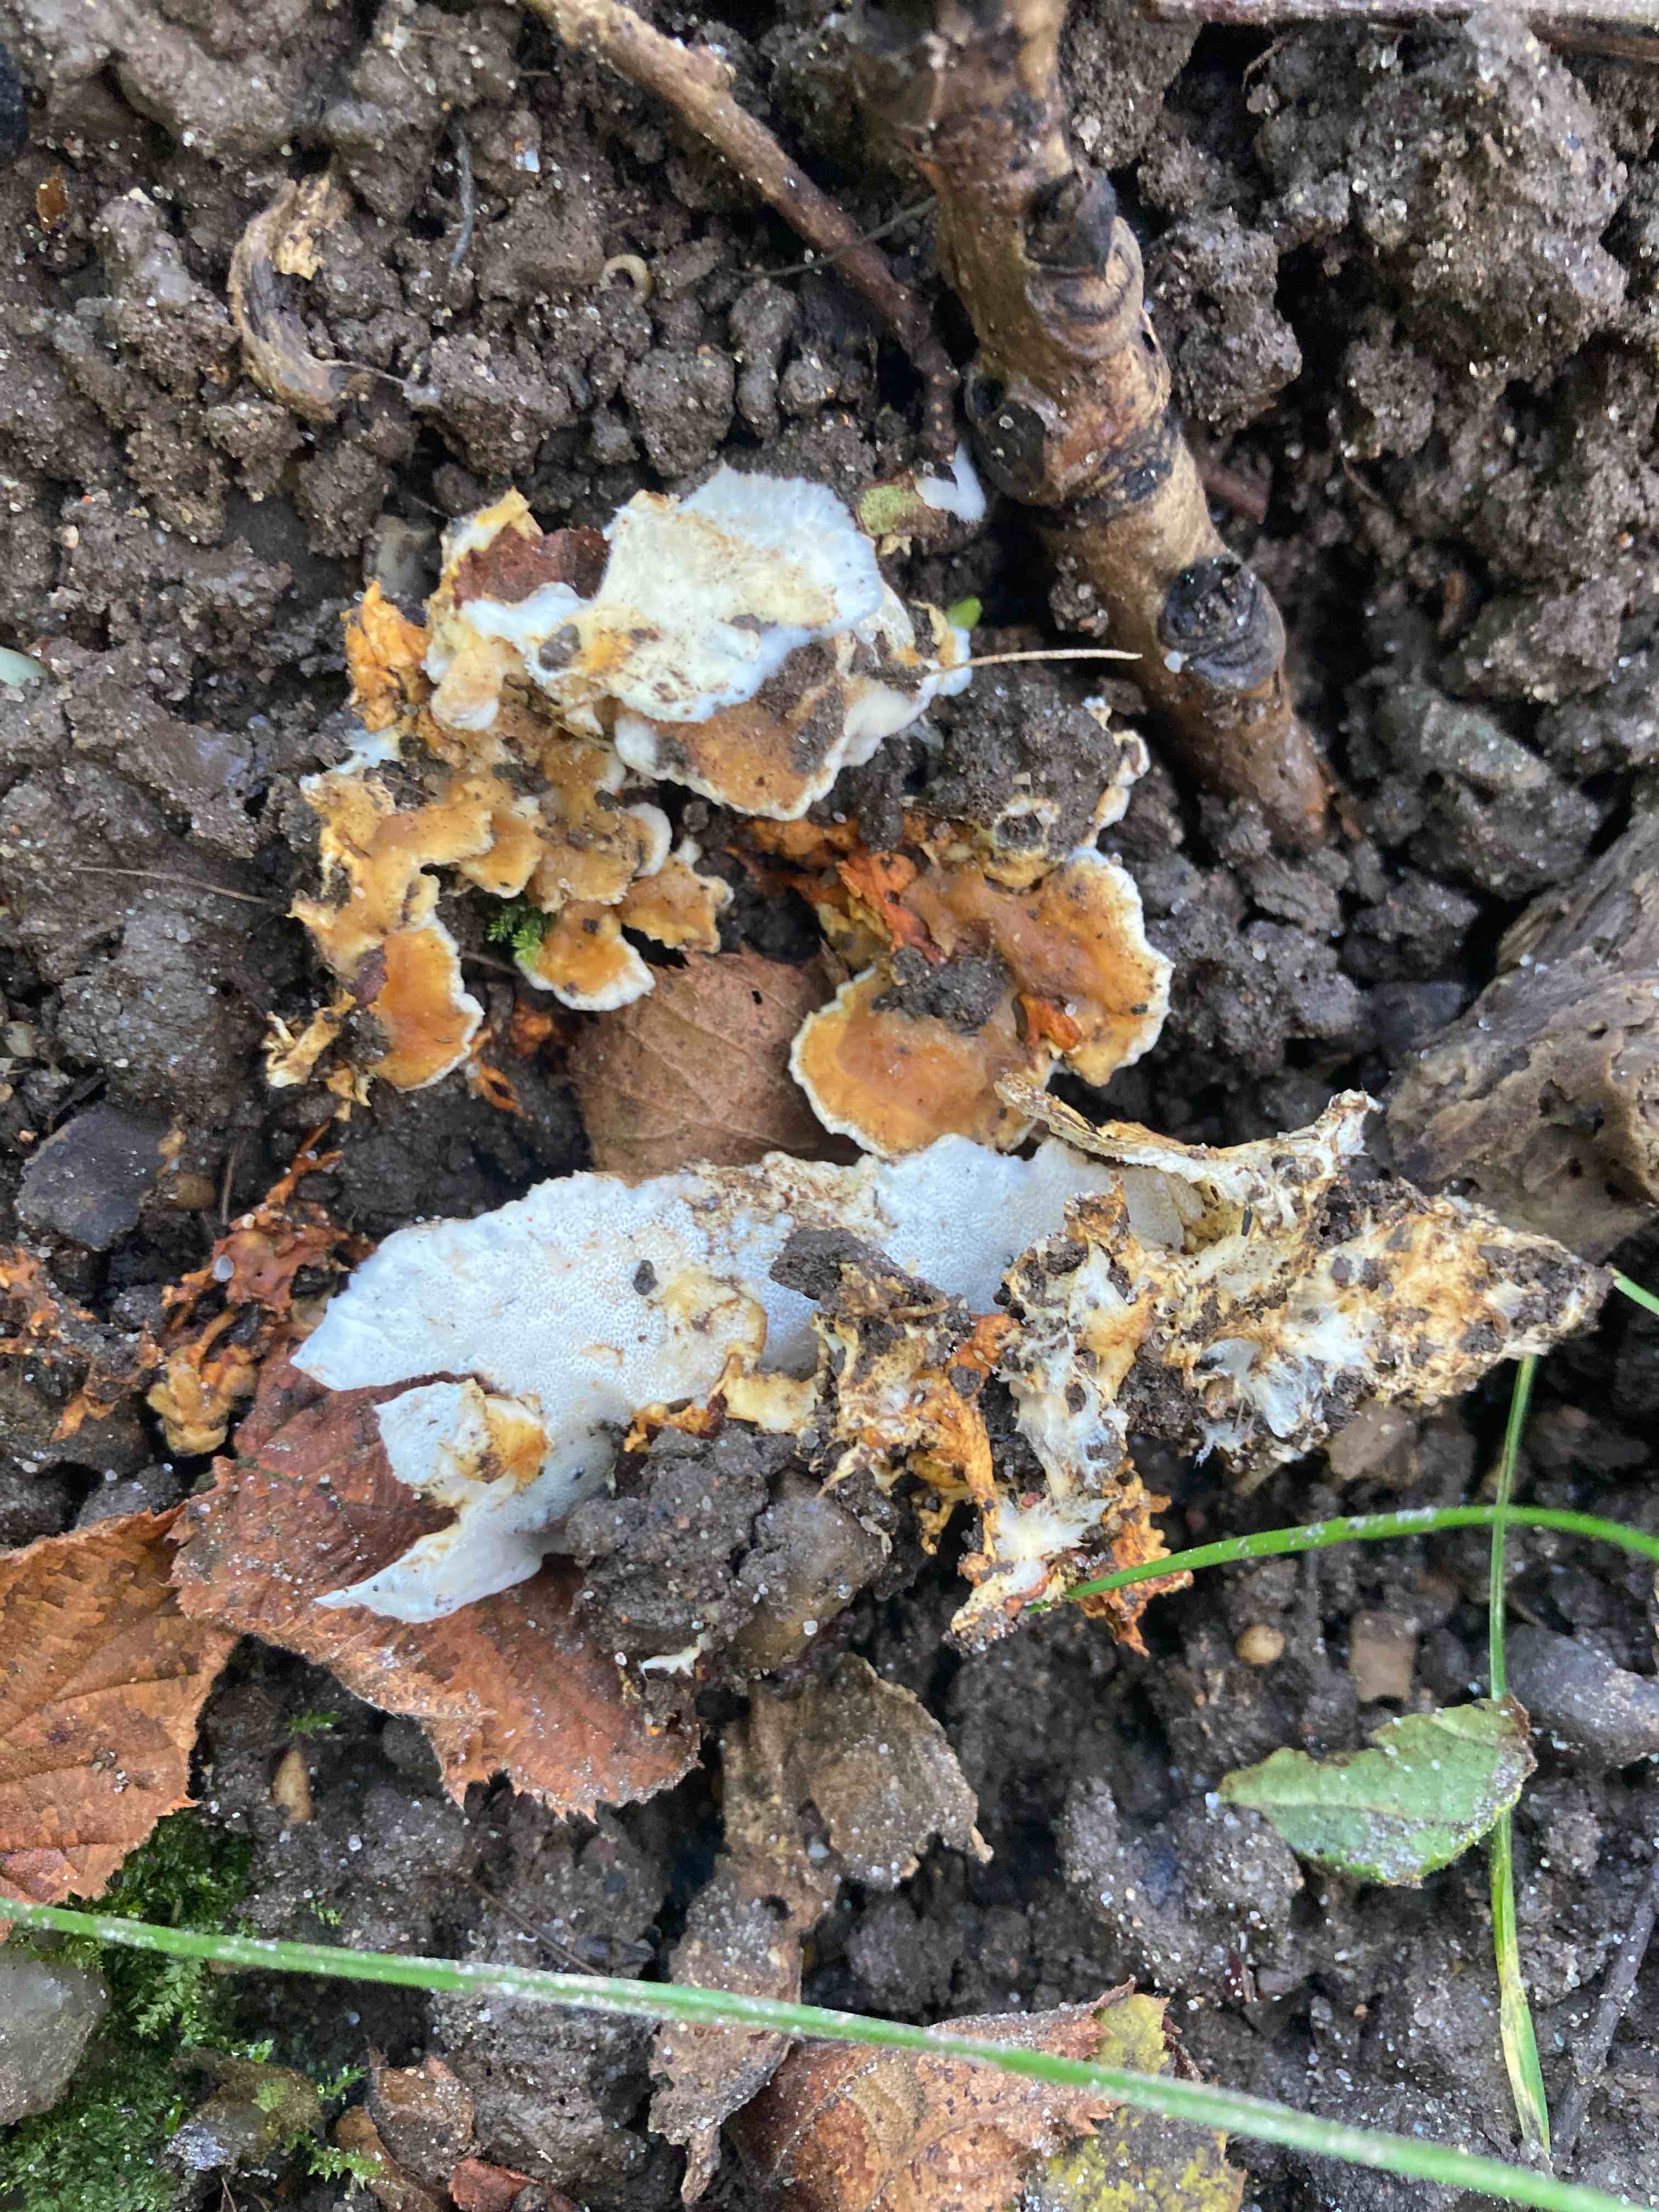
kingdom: Fungi
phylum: Basidiomycota
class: Agaricomycetes
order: Polyporales
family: Steccherinaceae
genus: Loweomyces
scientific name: Loweomyces wynneae
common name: krybende blødporesvamp
